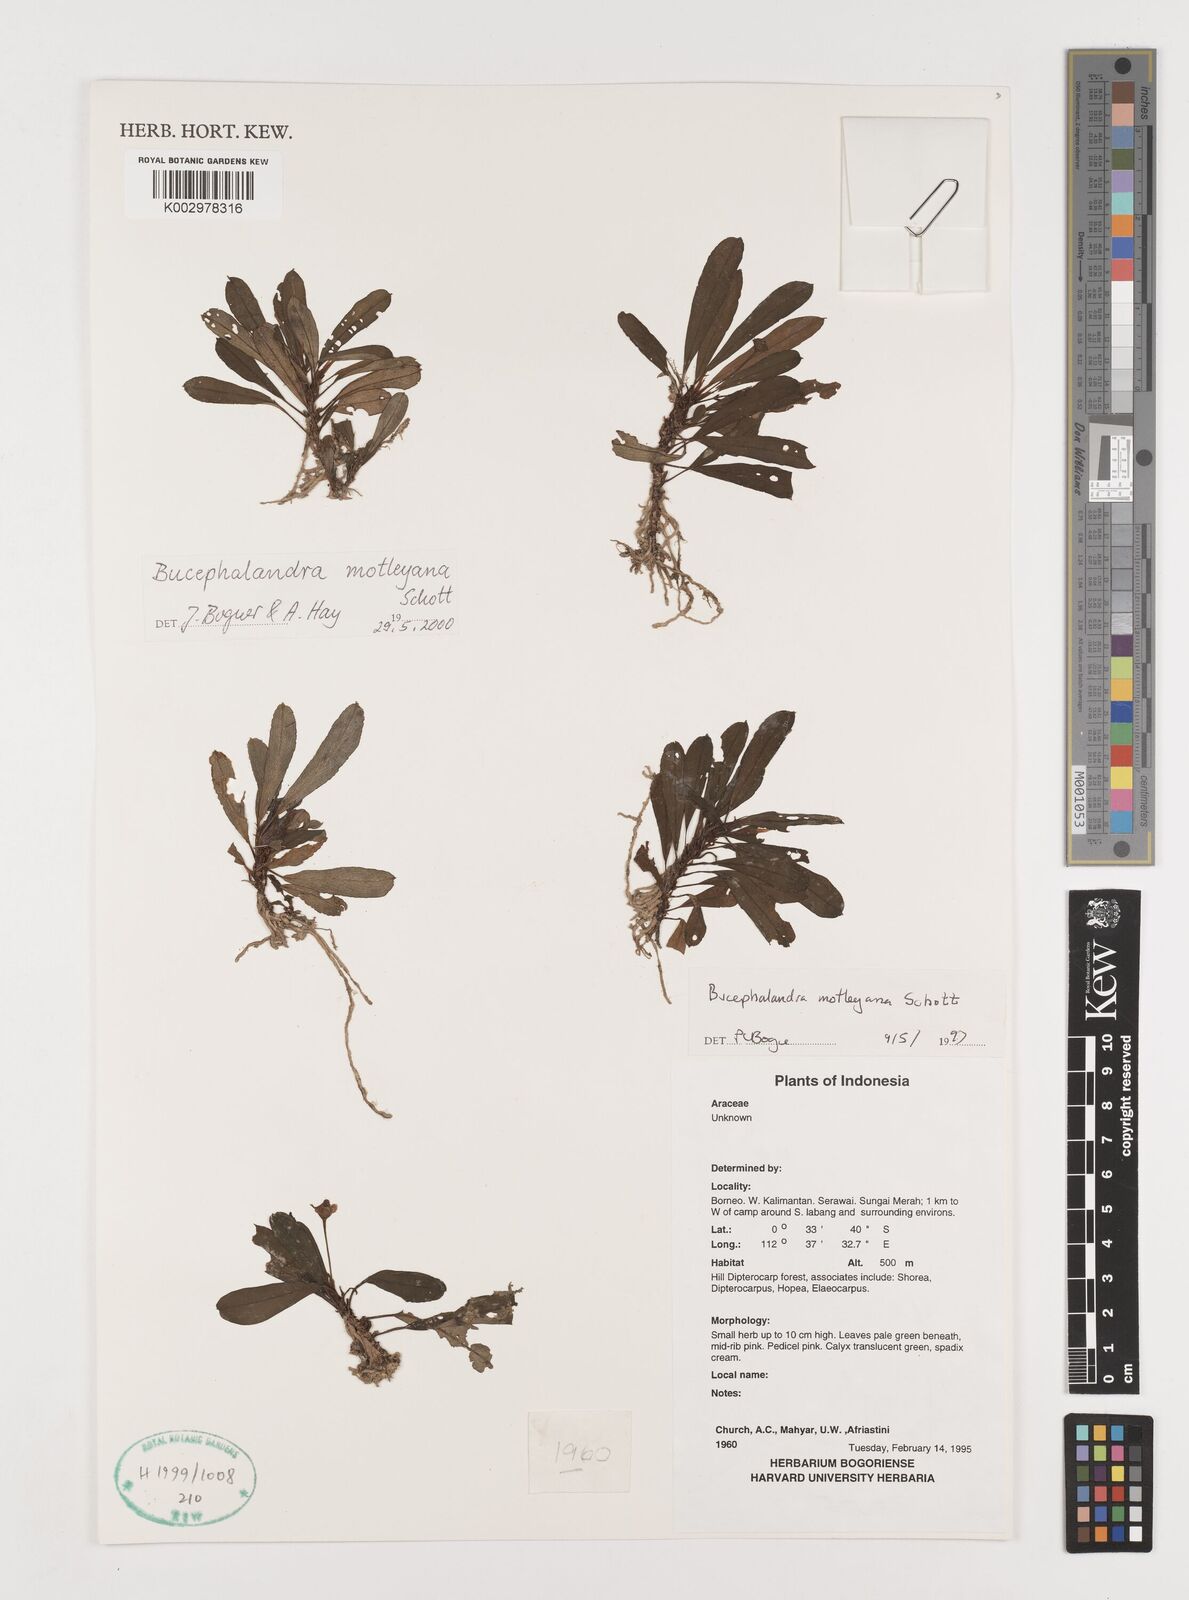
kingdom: Plantae
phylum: Tracheophyta
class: Liliopsida
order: Alismatales
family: Araceae
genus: Bucephalandra
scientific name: Bucephalandra motleyana
